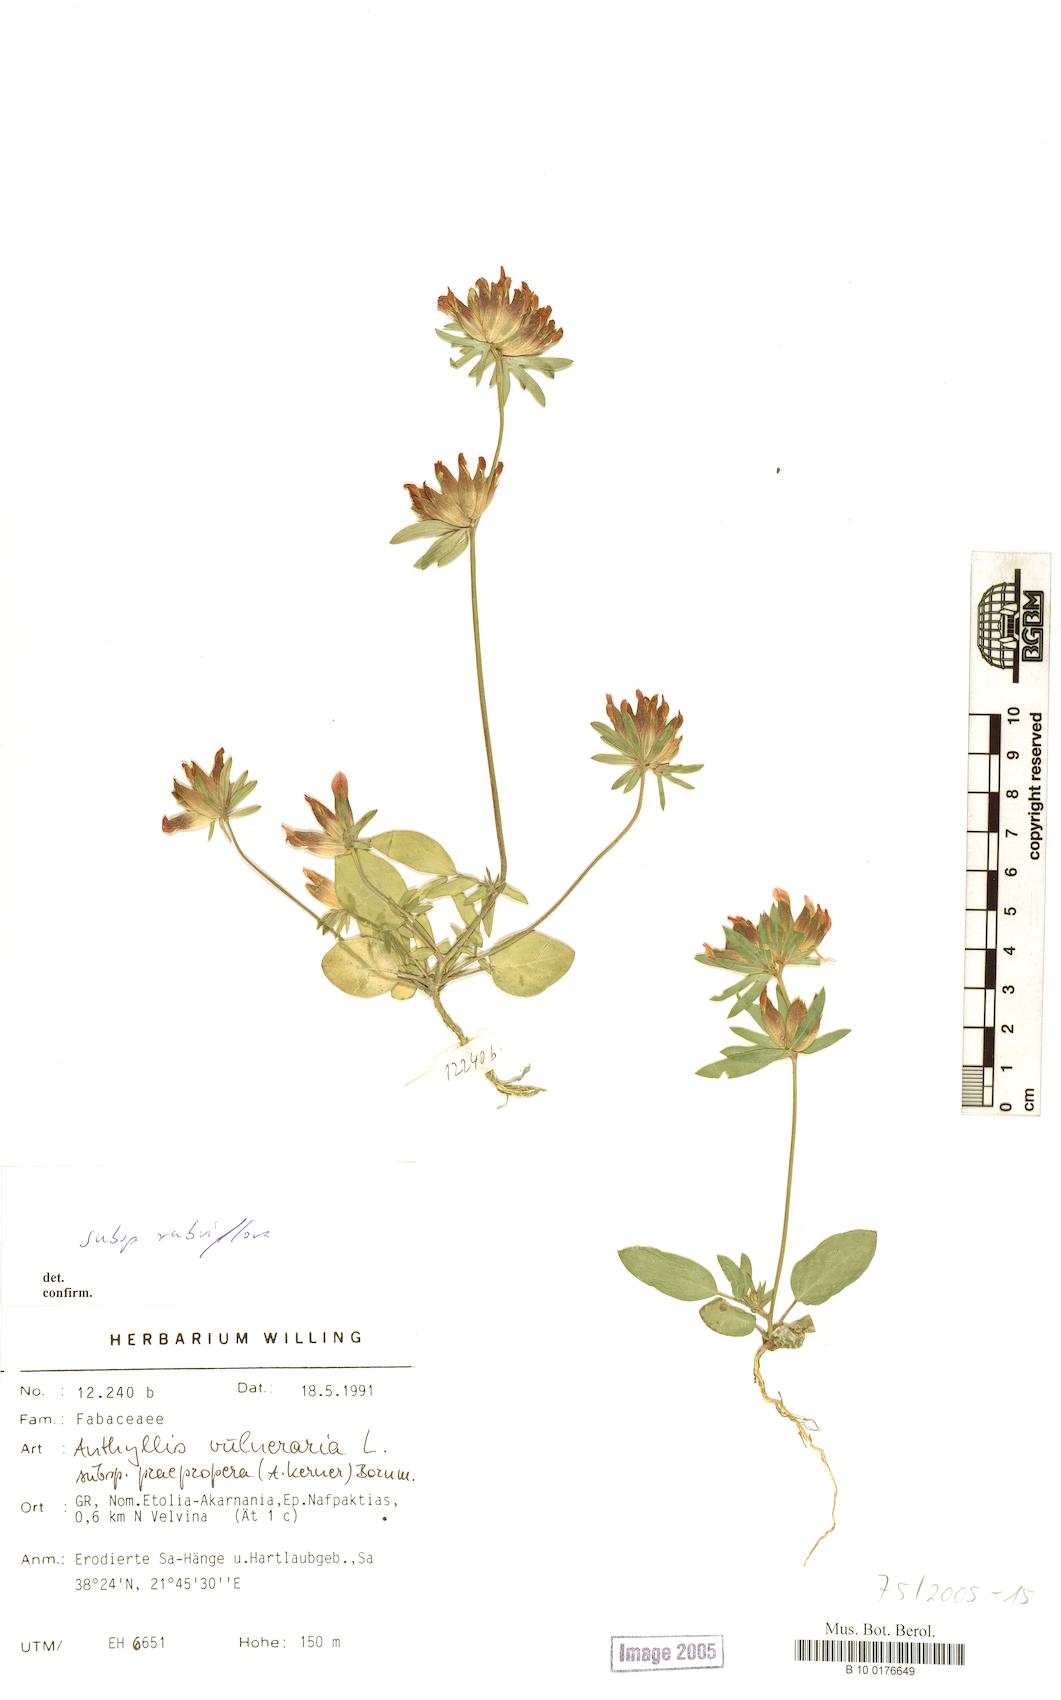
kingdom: Plantae
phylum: Tracheophyta
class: Magnoliopsida
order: Fabales
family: Fabaceae
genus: Anthyllis
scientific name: Anthyllis vulneraria
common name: Kidney vetch
